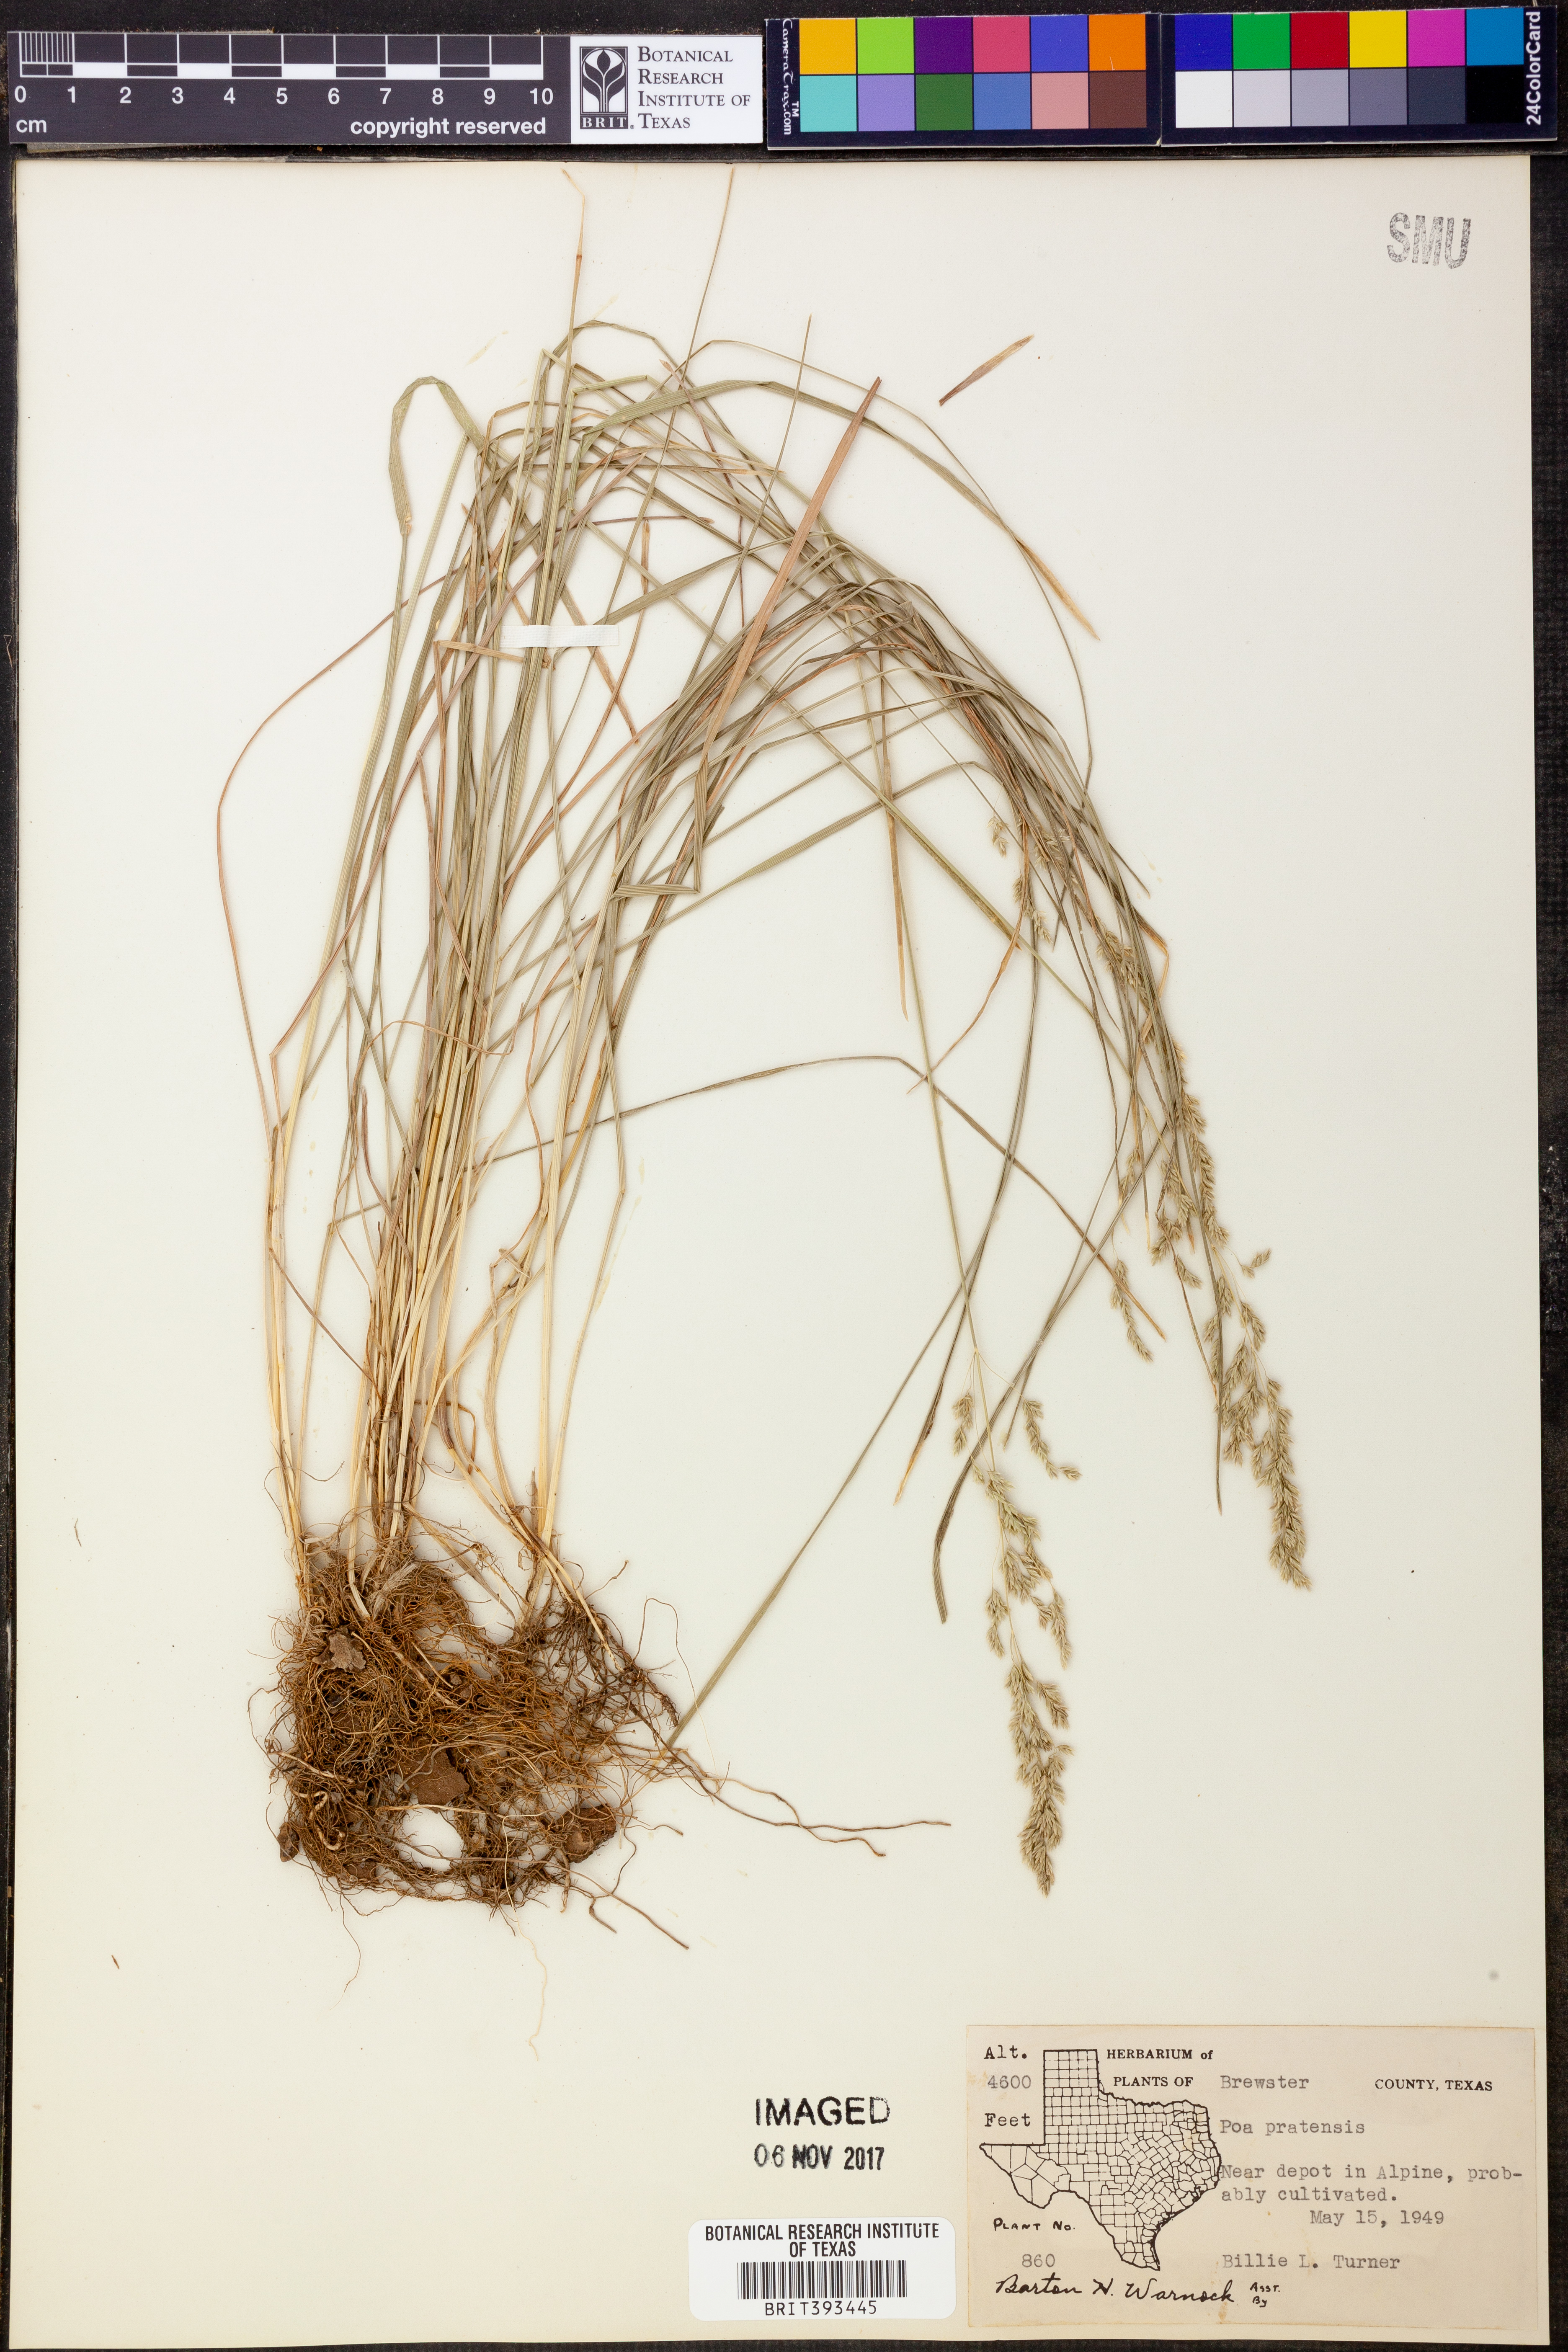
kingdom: Plantae
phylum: Tracheophyta
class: Liliopsida
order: Poales
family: Poaceae
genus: Poa
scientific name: Poa pratensis
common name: Kentucky bluegrass
